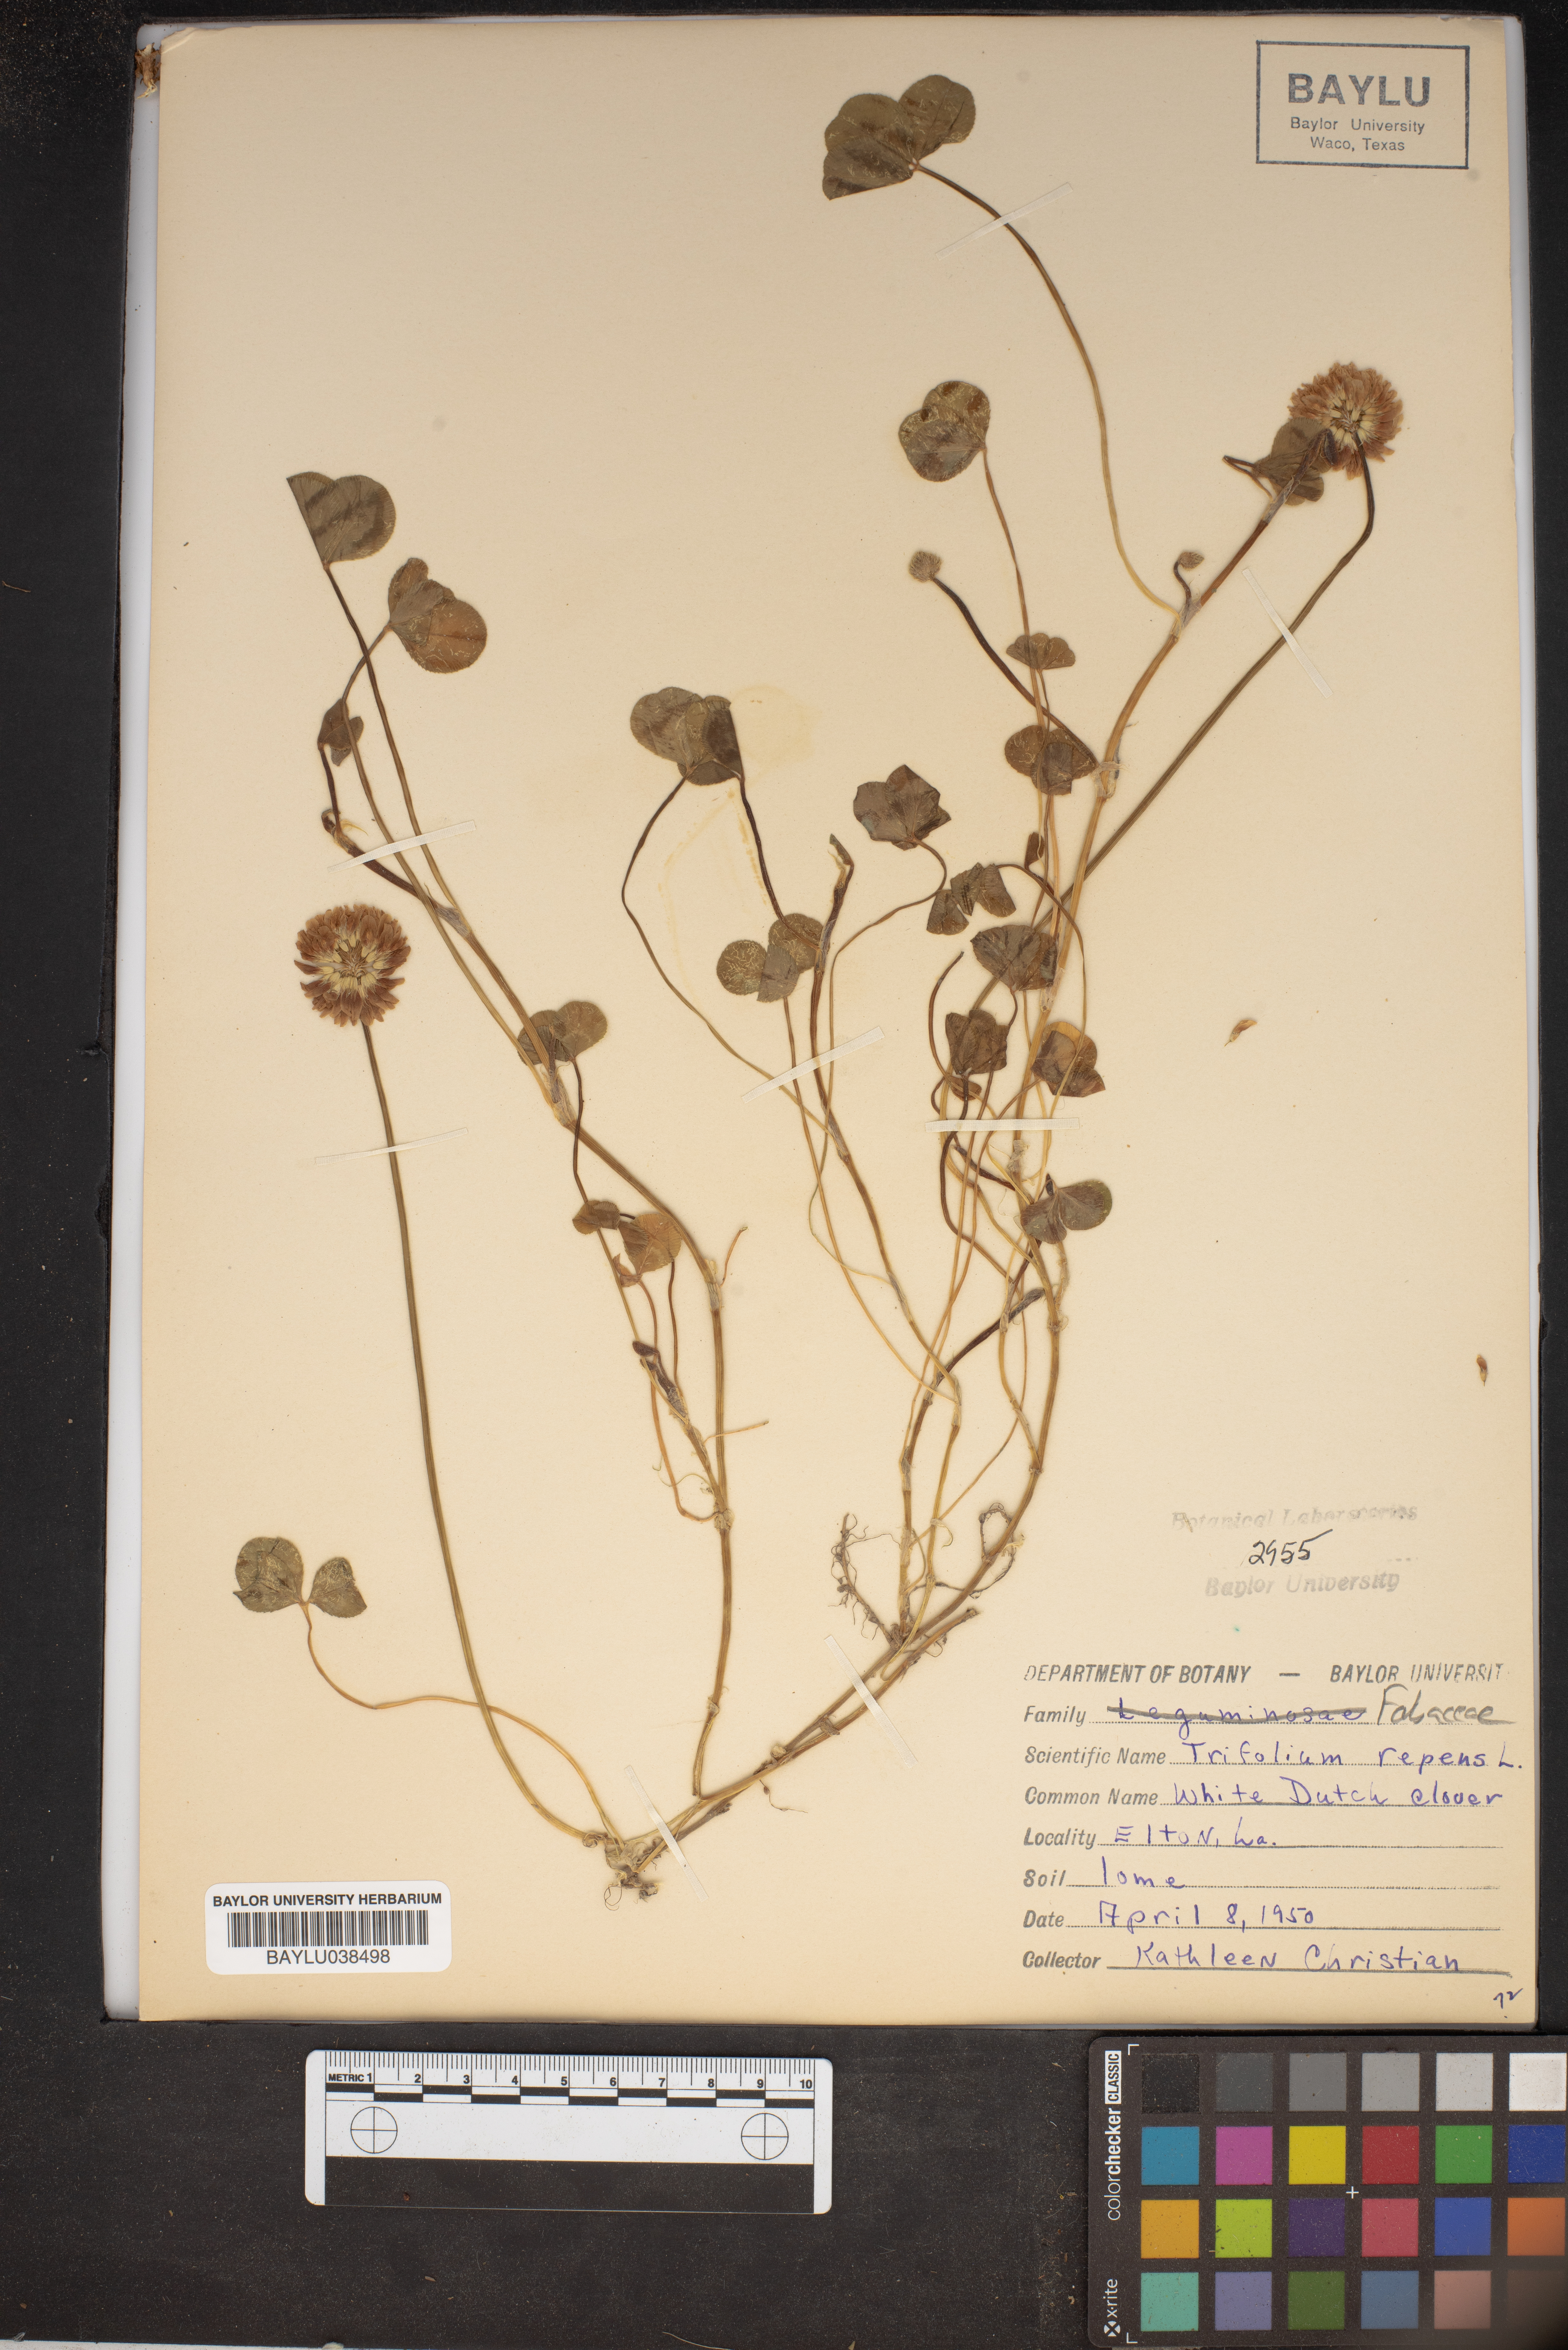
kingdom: Plantae
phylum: Tracheophyta
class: Magnoliopsida
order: Fabales
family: Fabaceae
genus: Trifolium
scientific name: Trifolium repens
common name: White clover
